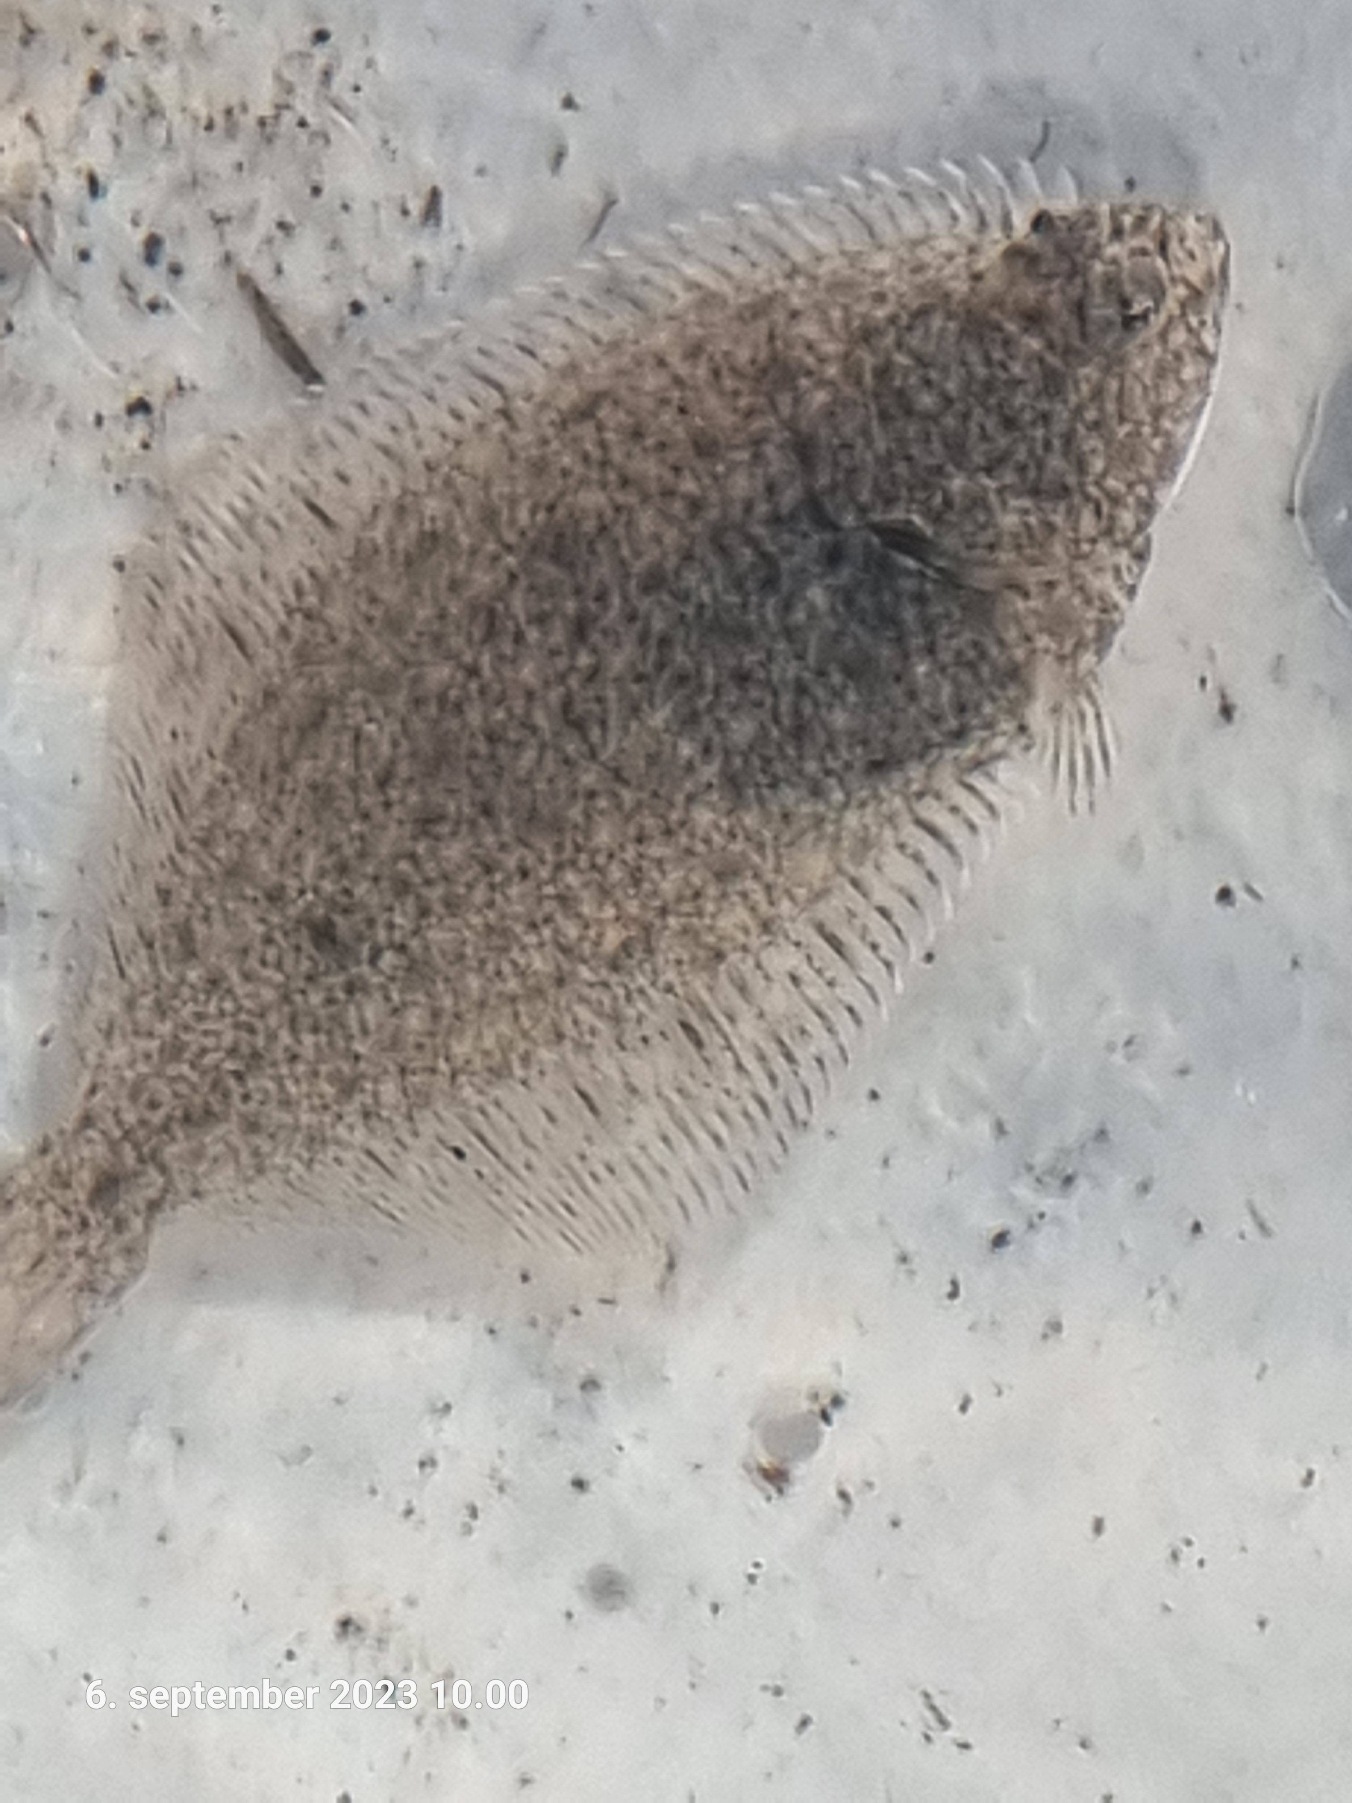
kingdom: Animalia
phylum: Chordata
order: Pleuronectiformes
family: Pleuronectidae
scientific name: Pleuronectidae
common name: Rødspættefamilien
